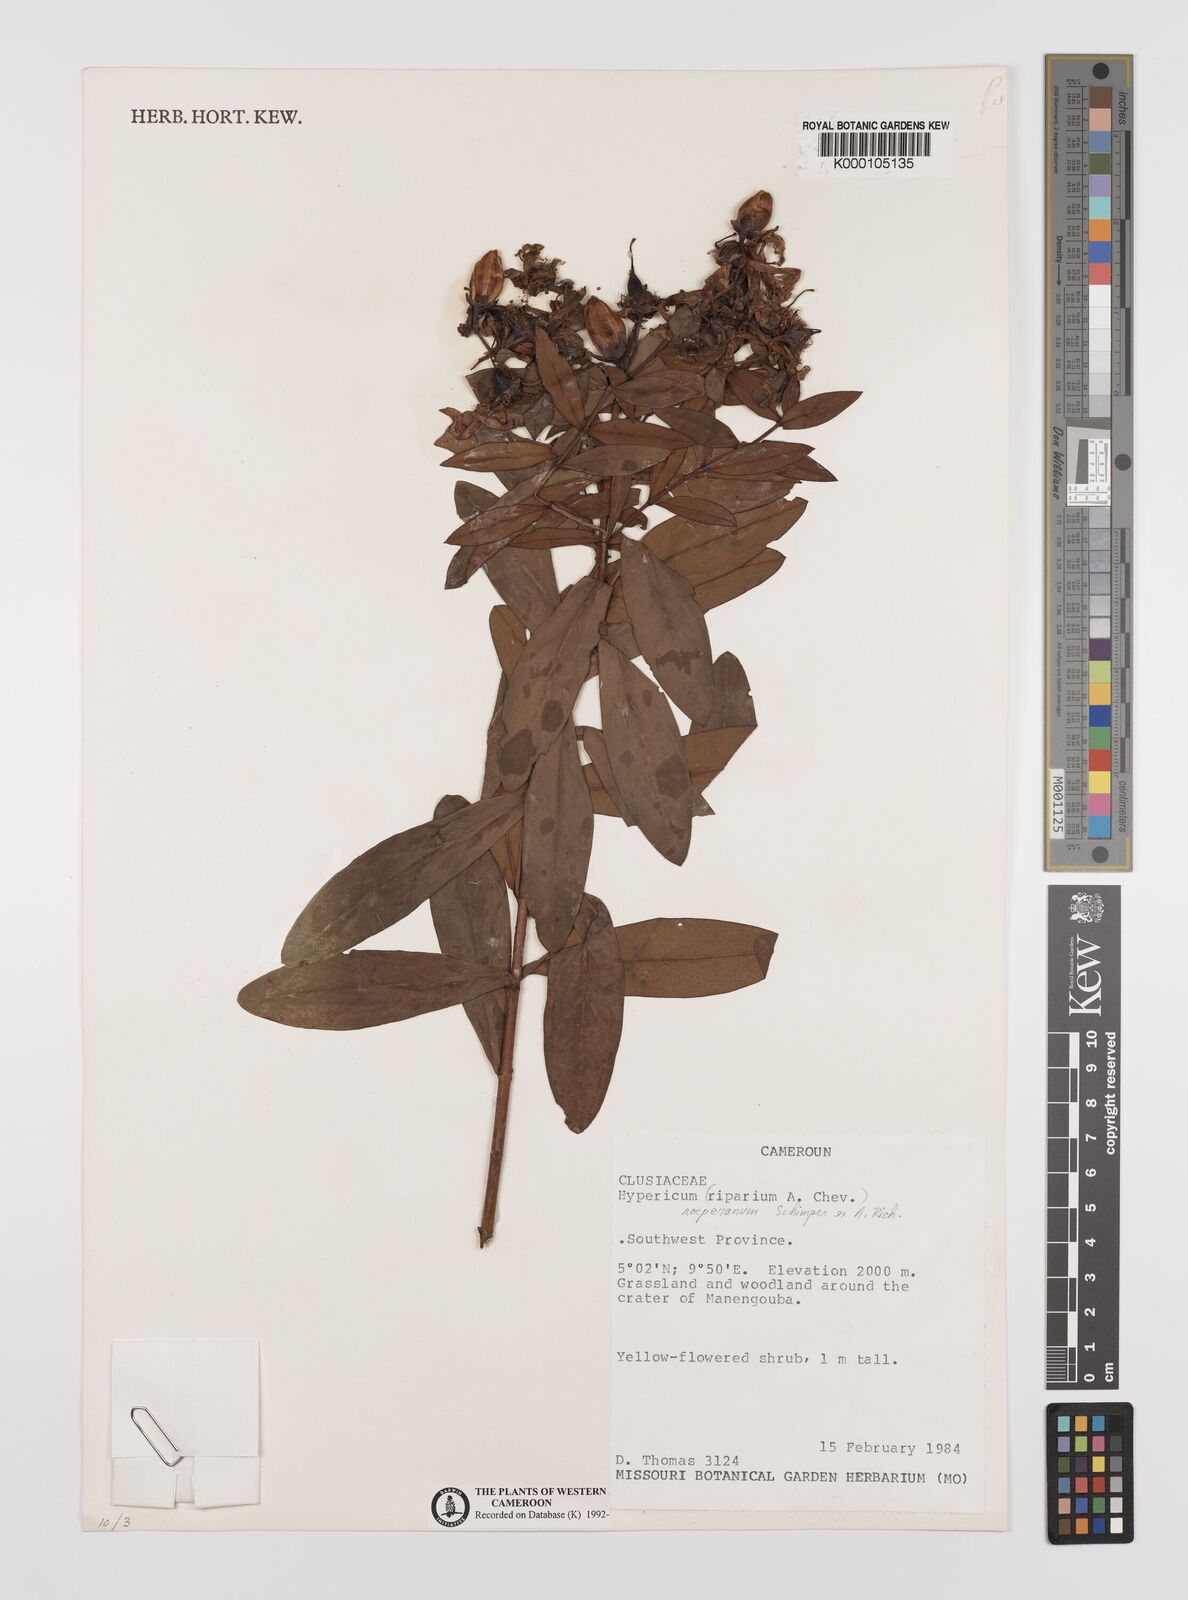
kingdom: Plantae
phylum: Tracheophyta
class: Magnoliopsida
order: Malpighiales
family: Hypericaceae
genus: Hypericum
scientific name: Hypericum roeperianum
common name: Large-leaved curry-bush
